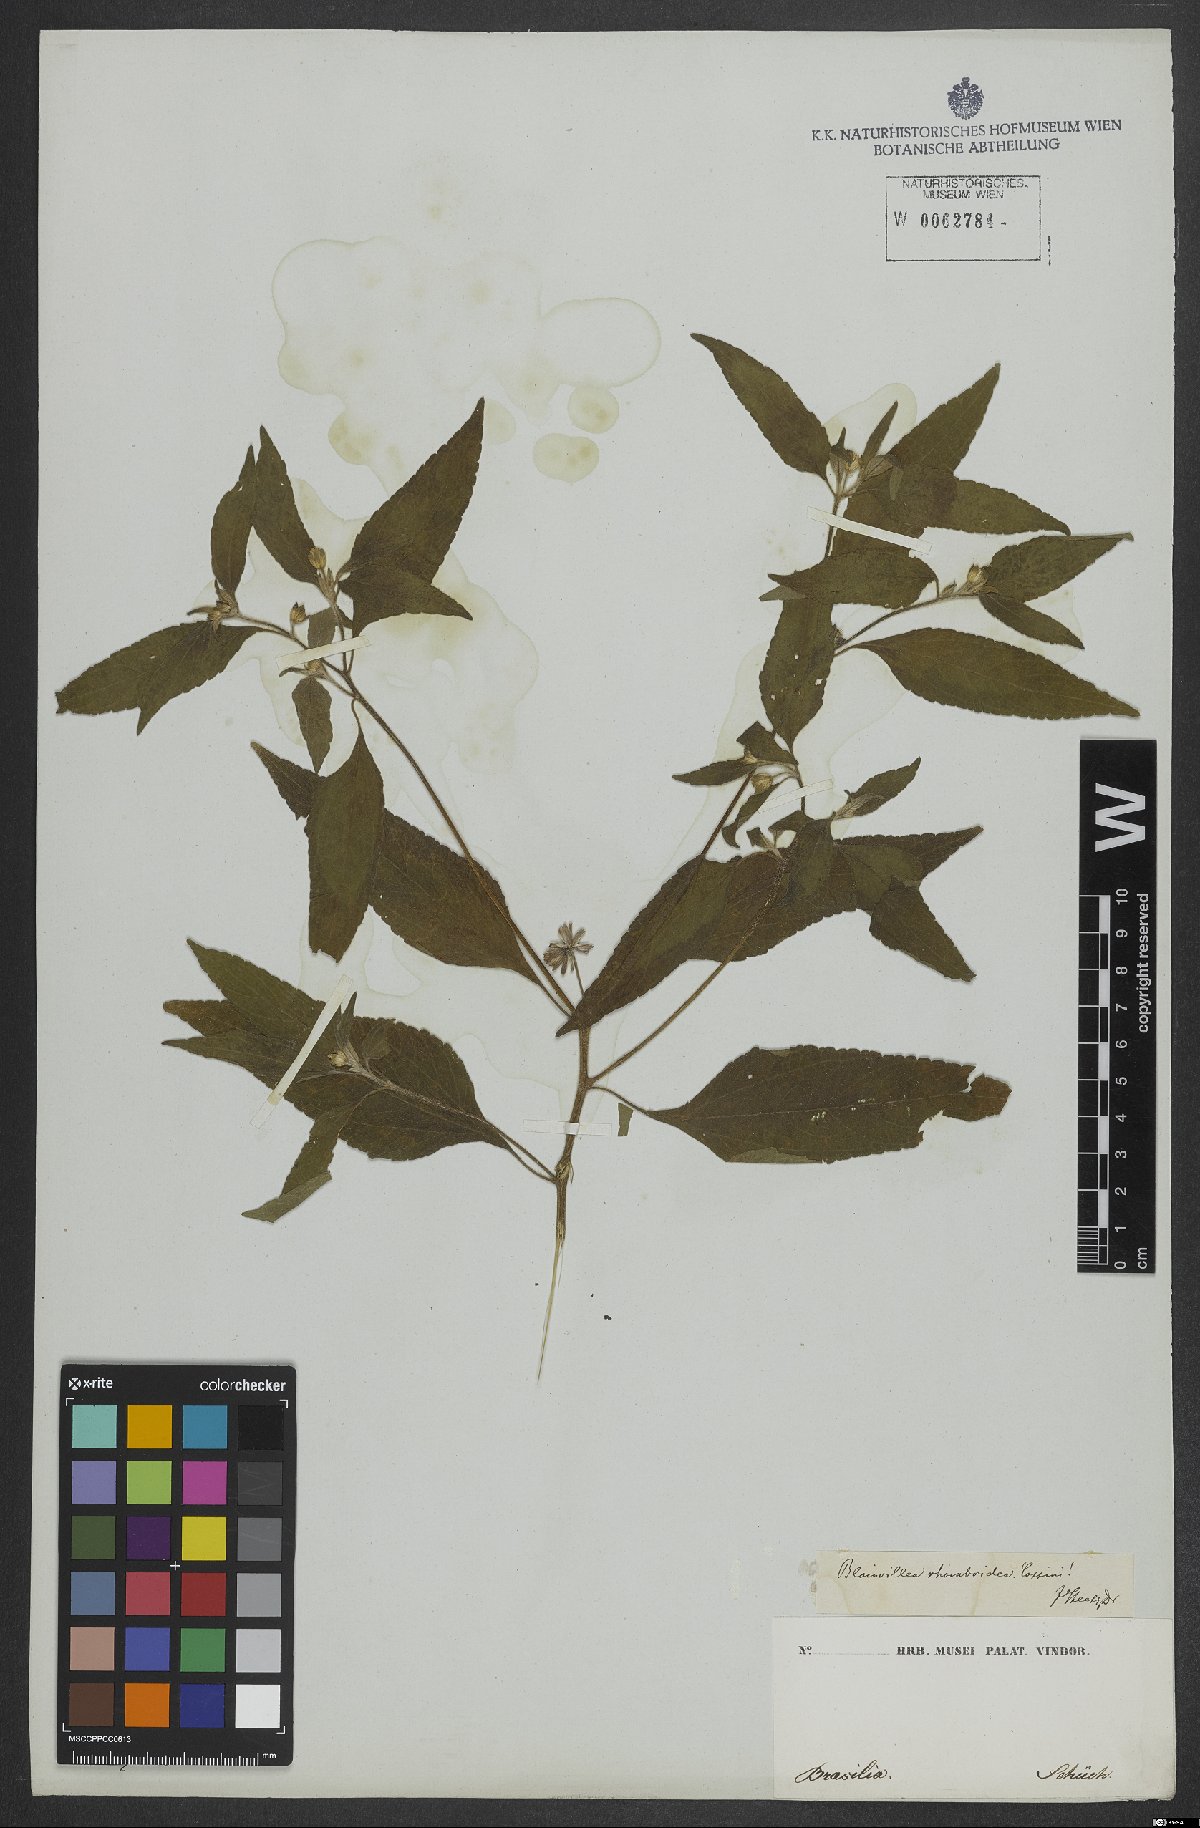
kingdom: Plantae
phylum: Tracheophyta
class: Magnoliopsida
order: Asterales
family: Asteraceae
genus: Blainvillea
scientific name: Blainvillea dichotoma
